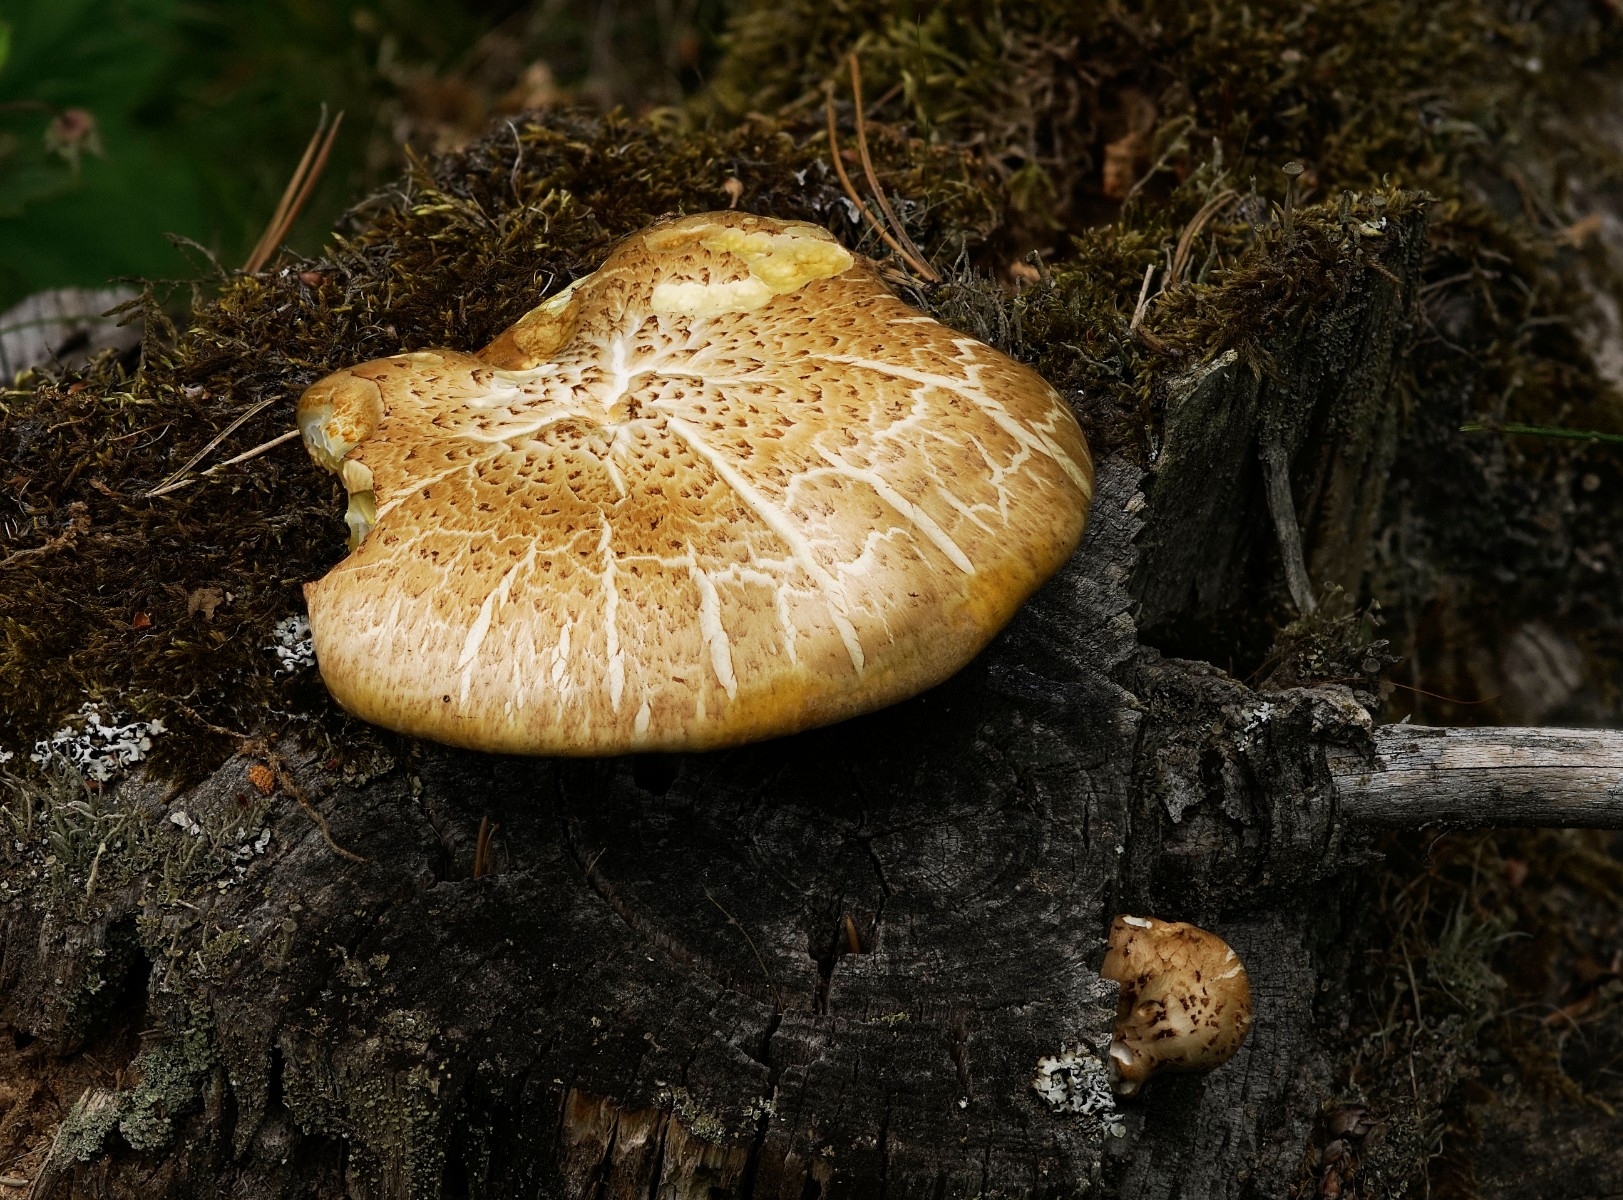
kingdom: Fungi
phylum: Basidiomycota
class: Agaricomycetes
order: Gloeophyllales
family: Gloeophyllaceae
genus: Neolentinus
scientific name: Neolentinus lepideus
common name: skællet sejhat
